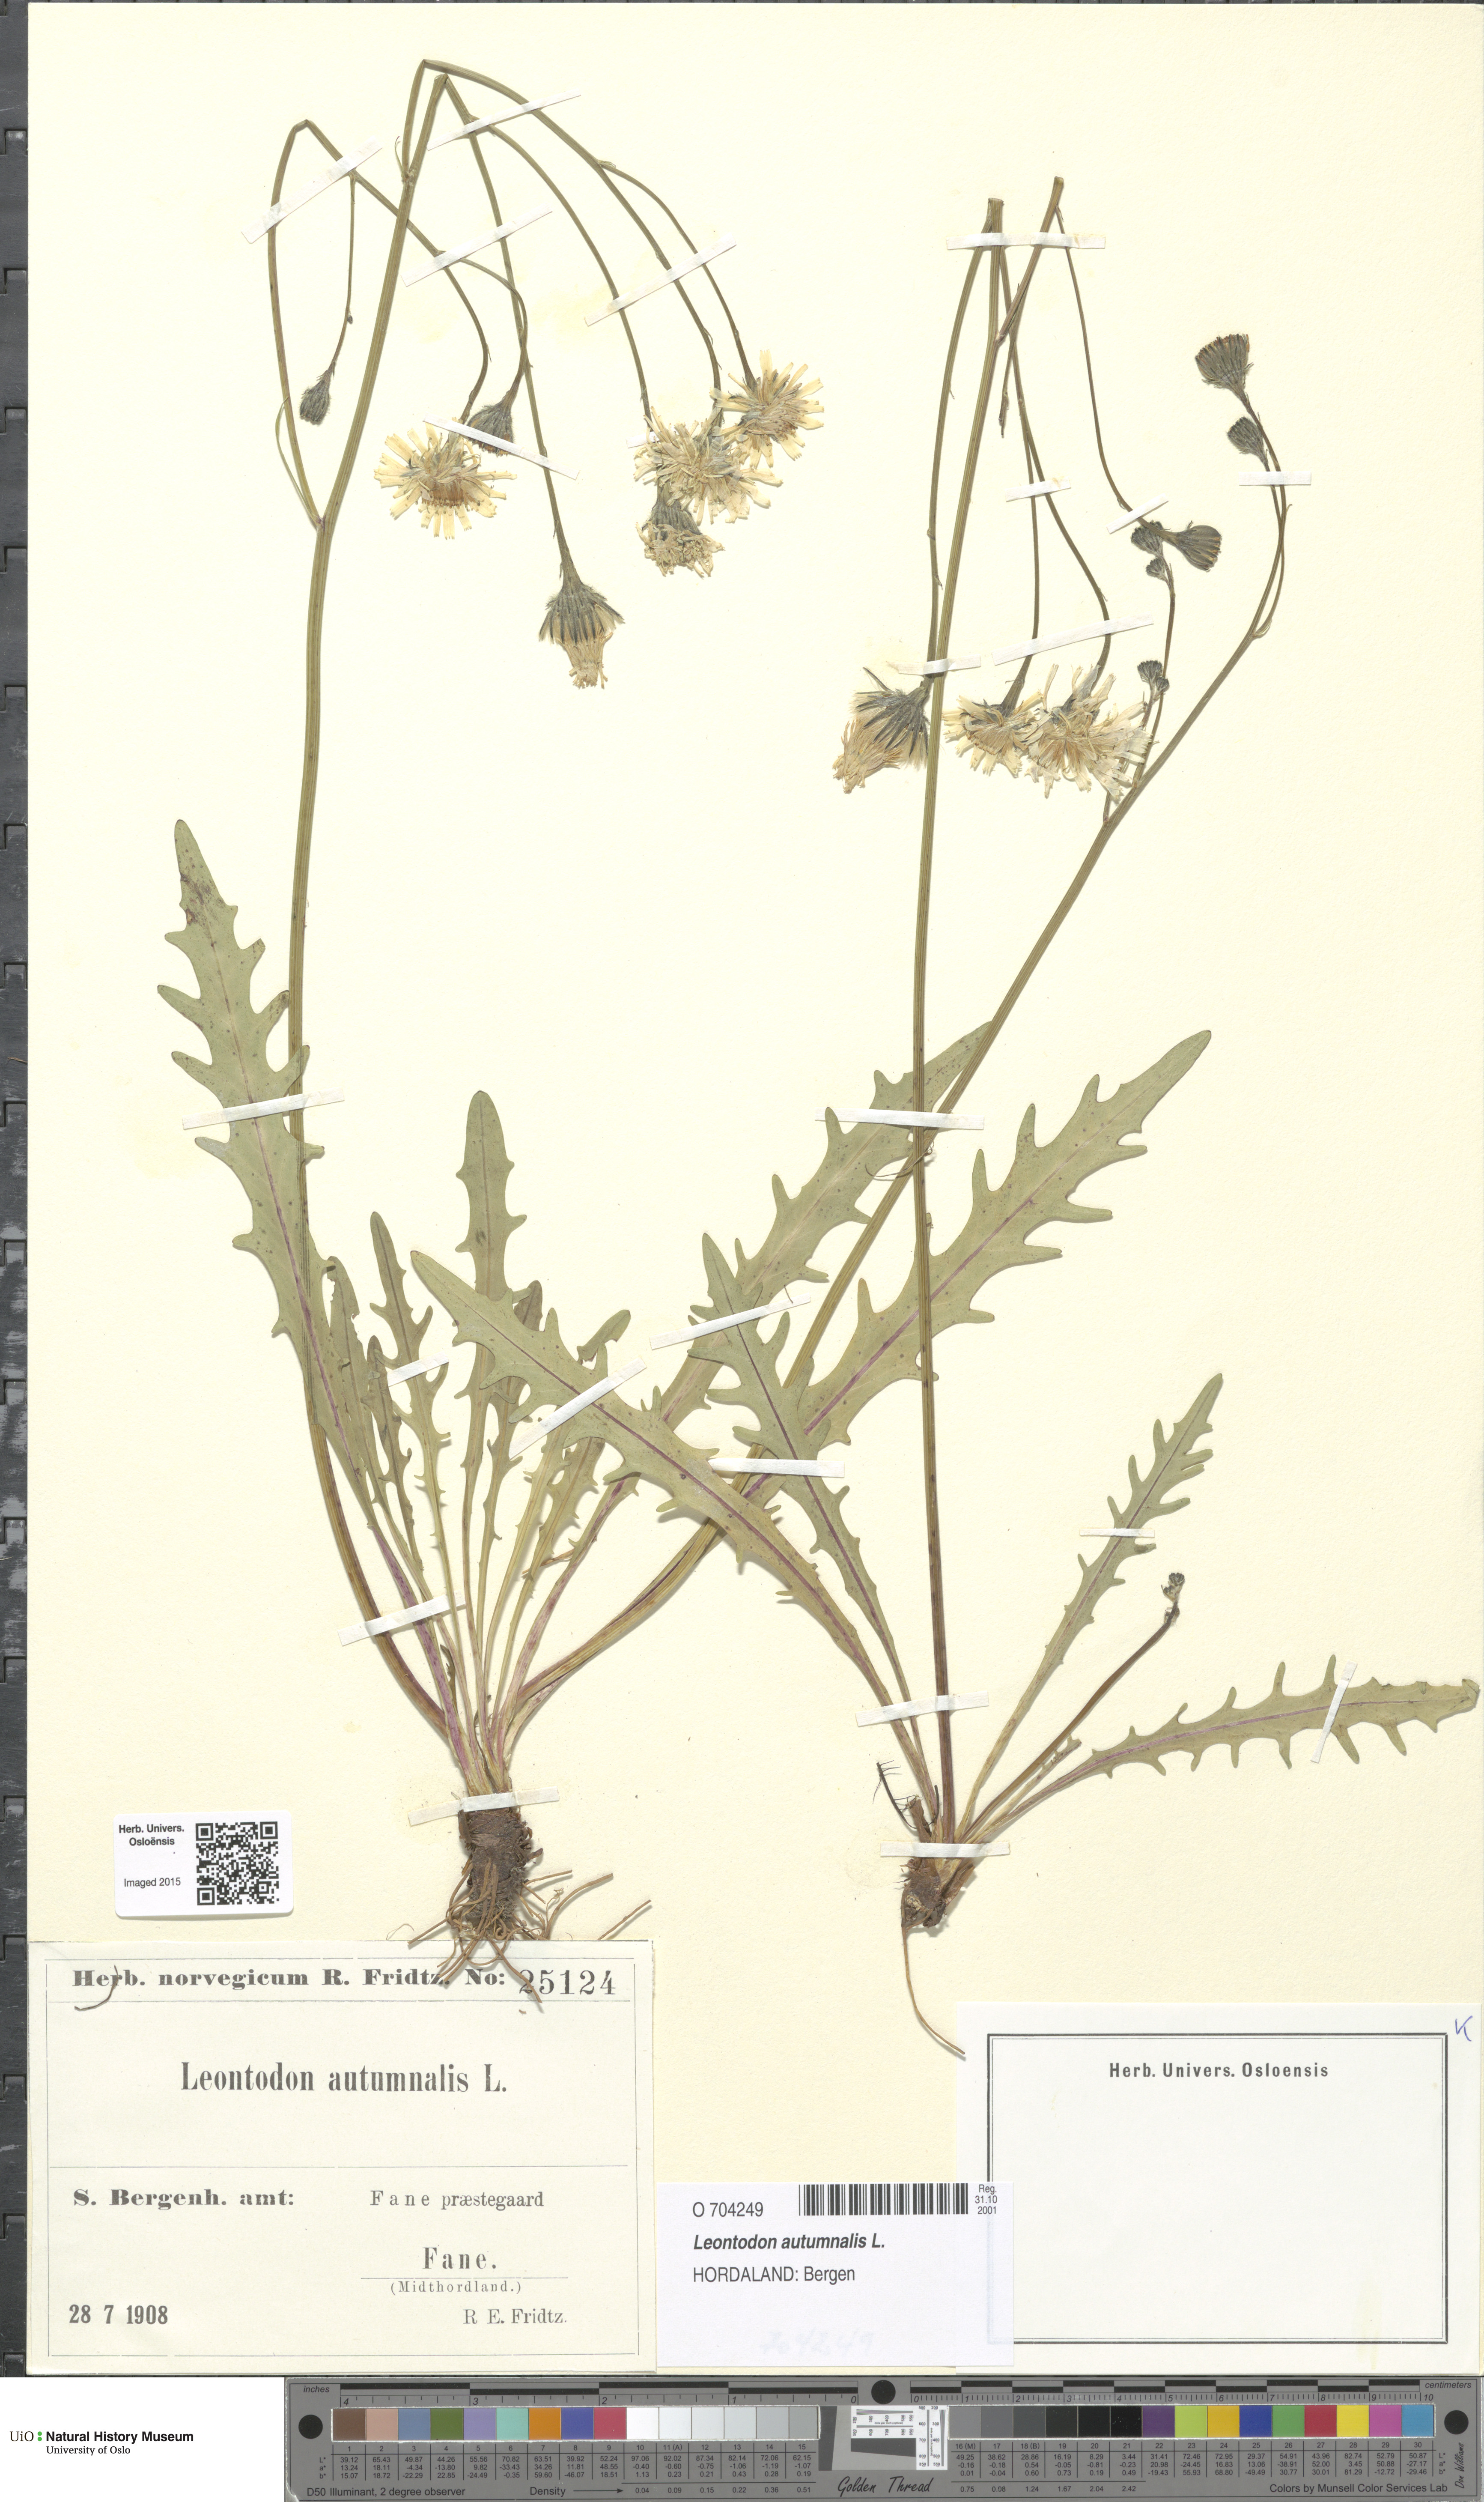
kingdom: Plantae
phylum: Tracheophyta
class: Magnoliopsida
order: Asterales
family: Asteraceae
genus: Scorzoneroides
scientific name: Scorzoneroides autumnalis
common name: Autumn hawkbit
